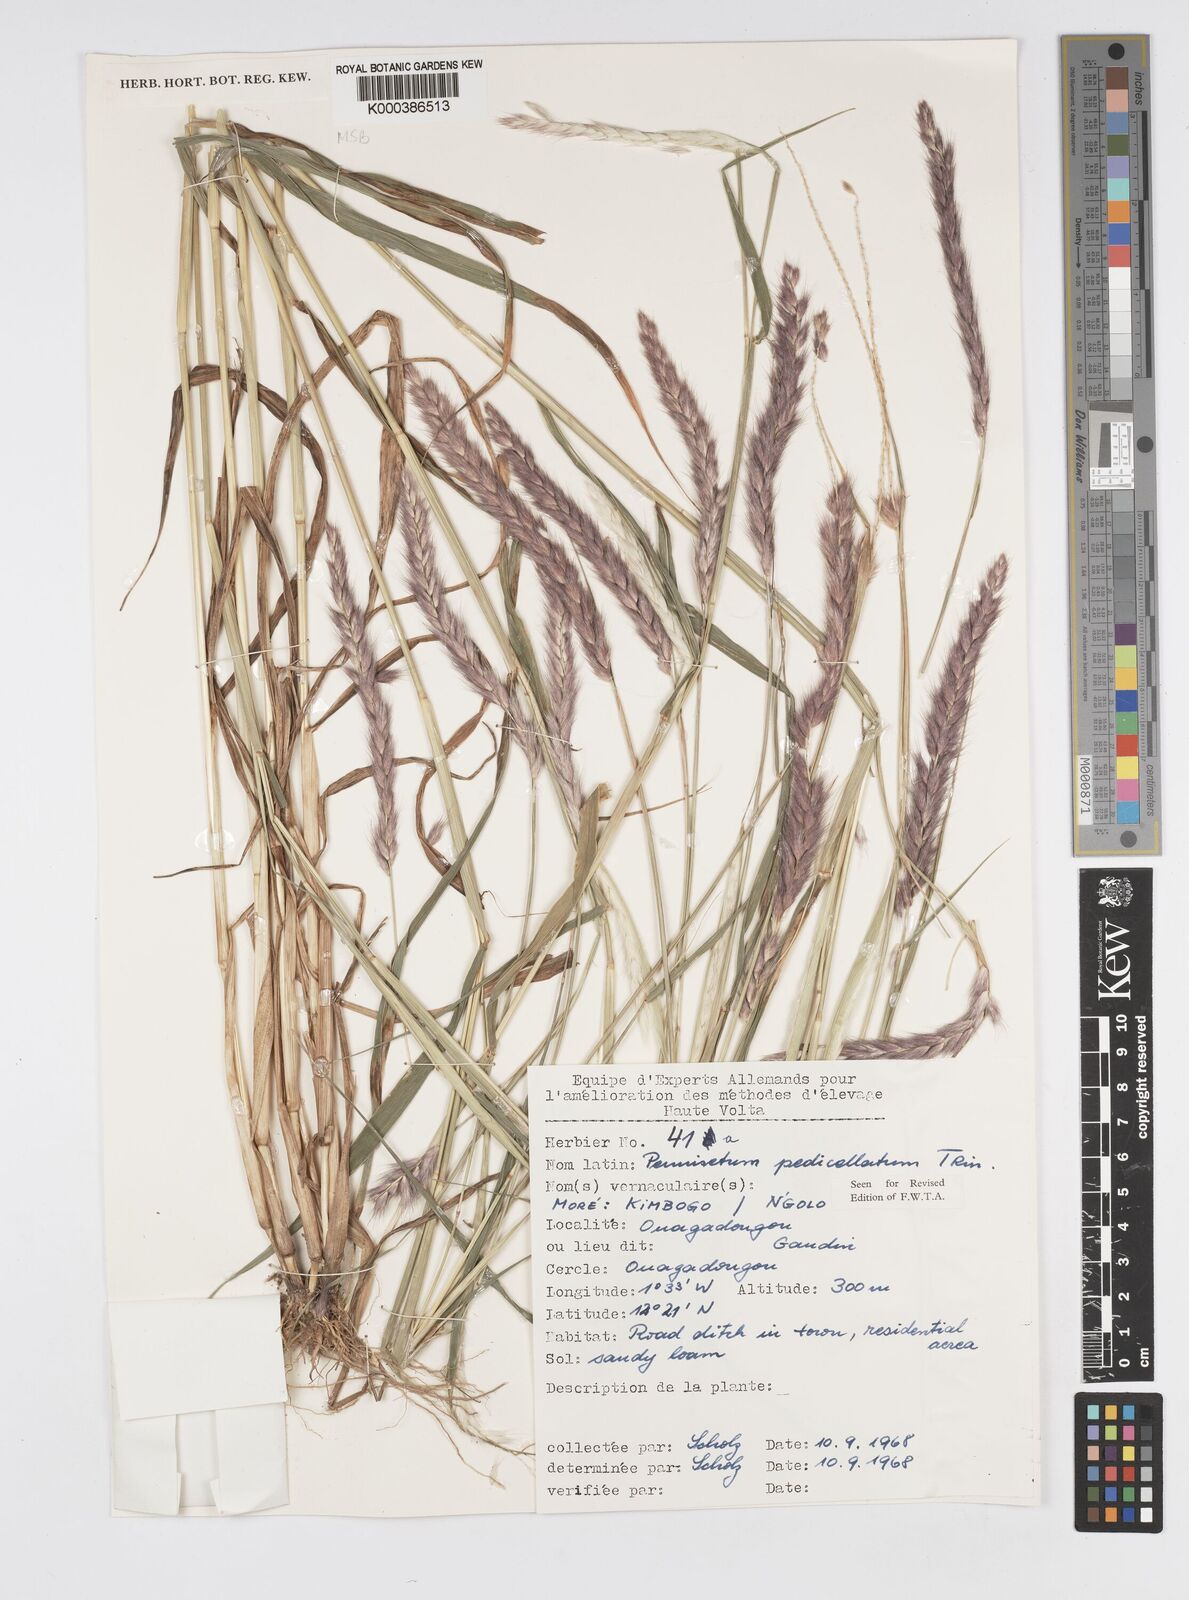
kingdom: Plantae
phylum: Tracheophyta
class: Liliopsida
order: Poales
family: Poaceae
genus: Cenchrus
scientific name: Cenchrus pedicellatus
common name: Hairy fountain grass
